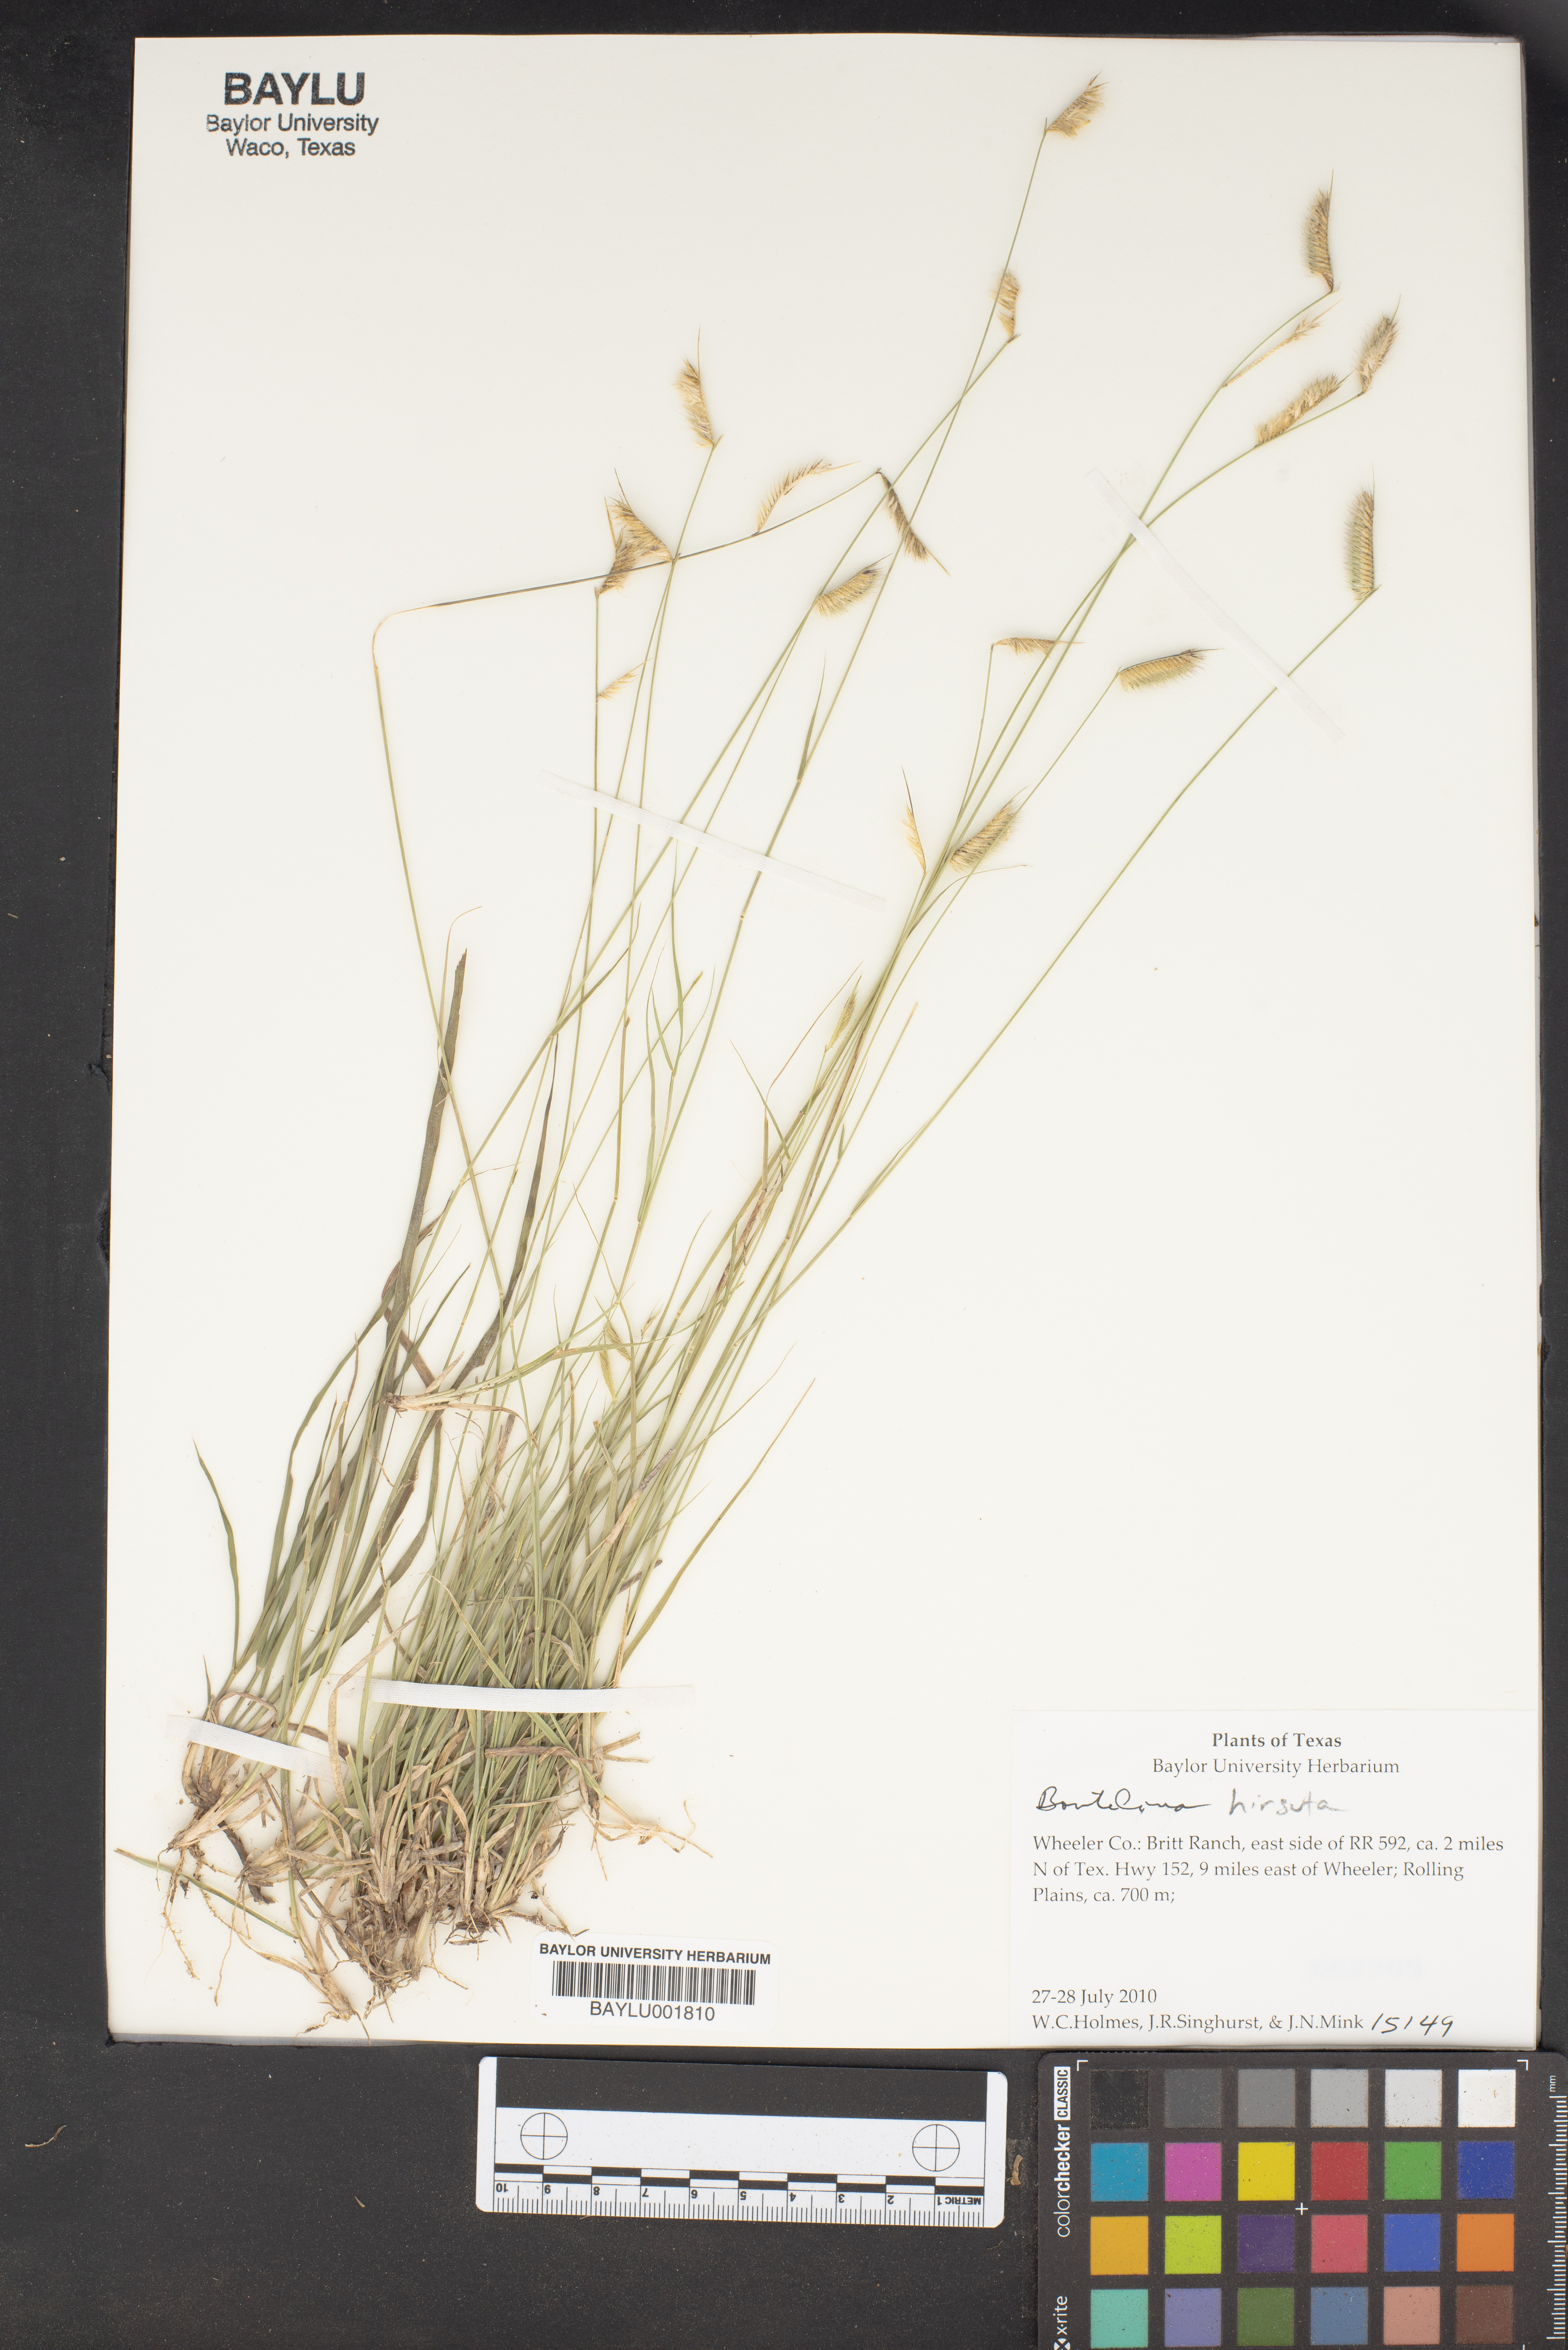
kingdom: Plantae
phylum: Tracheophyta
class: Liliopsida
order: Poales
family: Poaceae
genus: Bouteloua
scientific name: Bouteloua hirsuta
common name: Hairy grama
